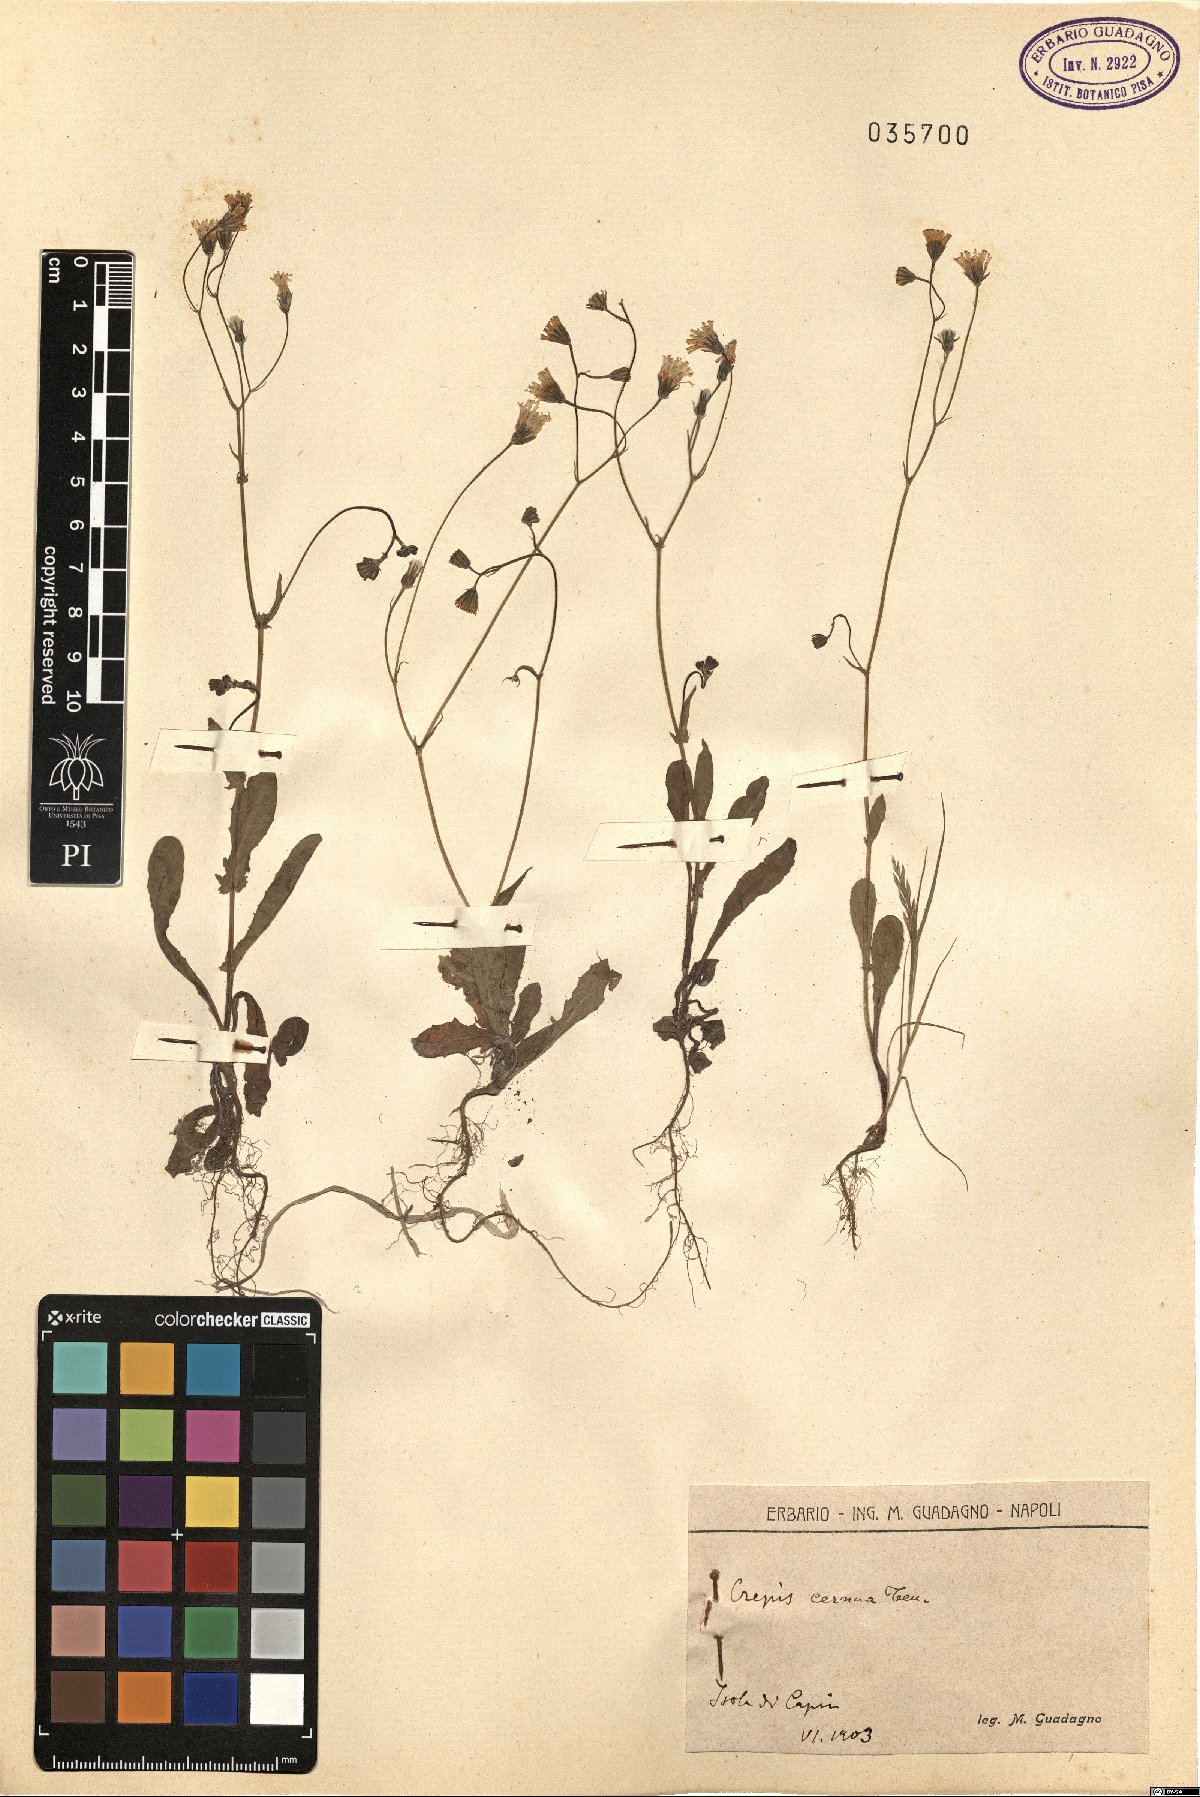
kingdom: Plantae
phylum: Tracheophyta
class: Magnoliopsida
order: Asterales
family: Asteraceae
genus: Crepis
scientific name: Crepis neglecta
